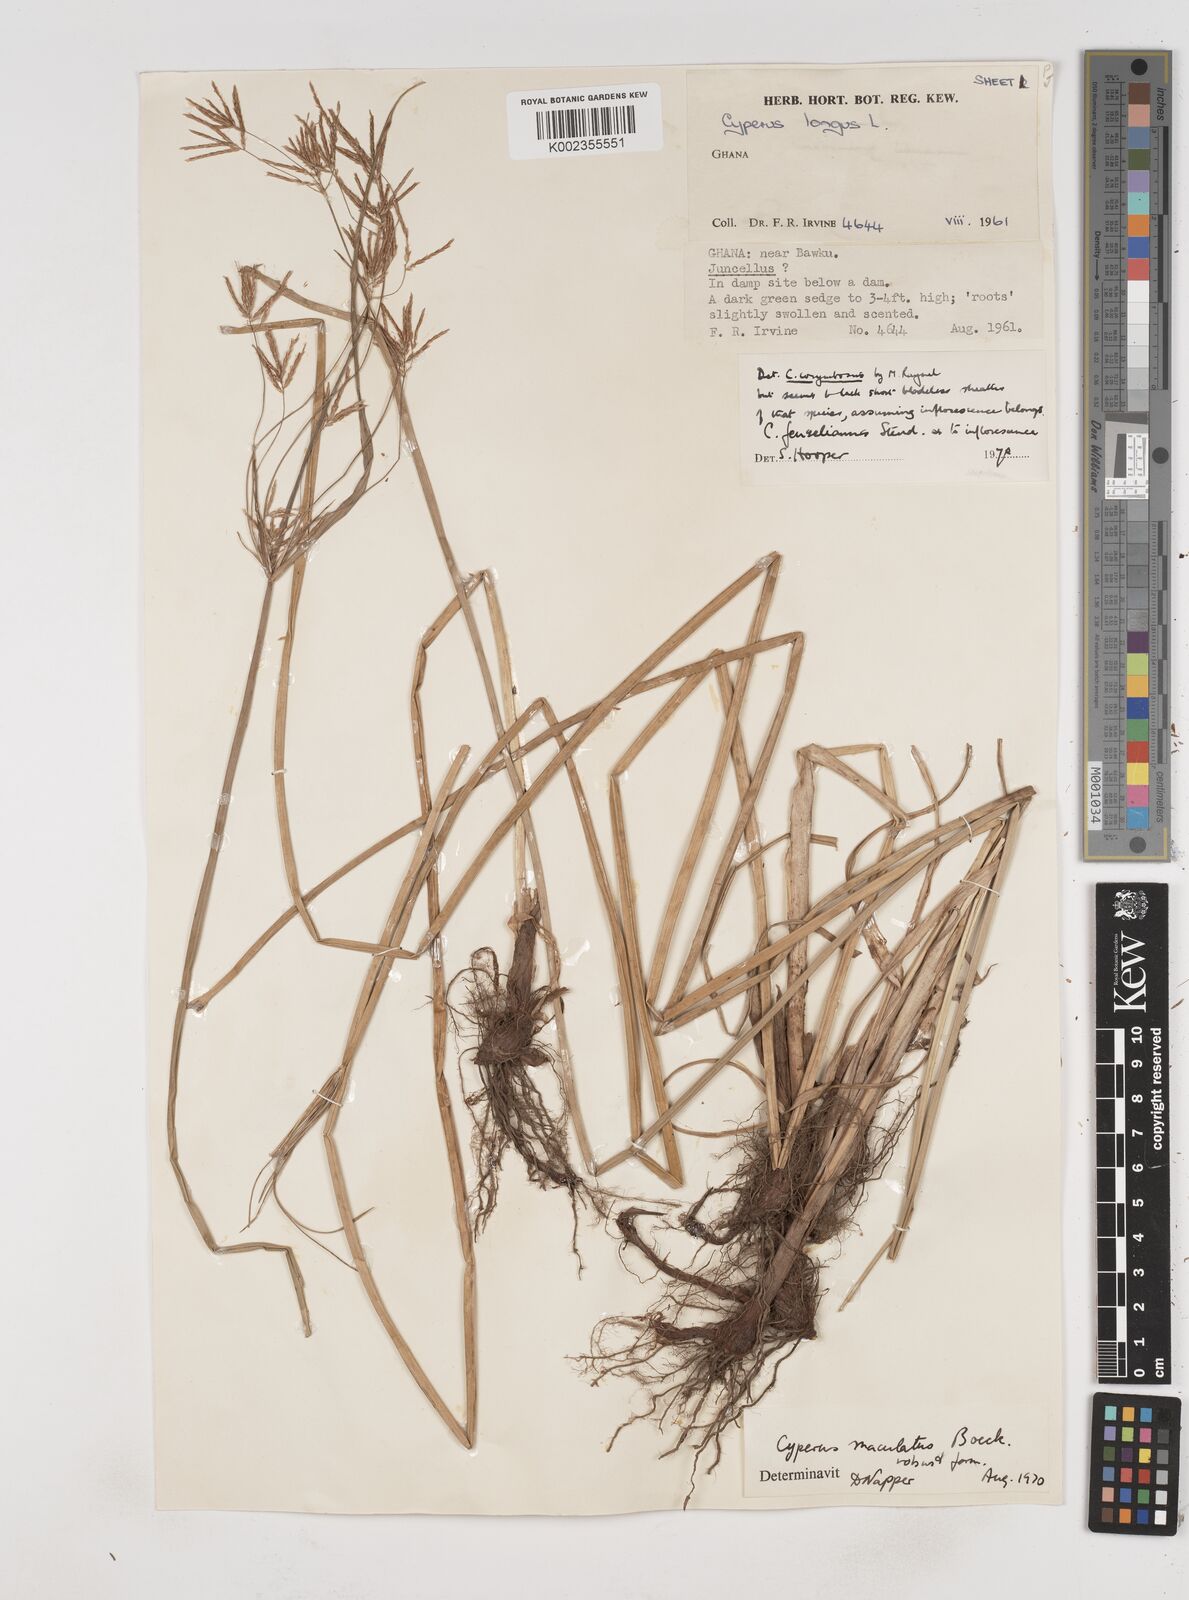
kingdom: Plantae
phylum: Tracheophyta
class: Liliopsida
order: Poales
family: Cyperaceae
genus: Cyperus
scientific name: Cyperus longus
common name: Galingale
